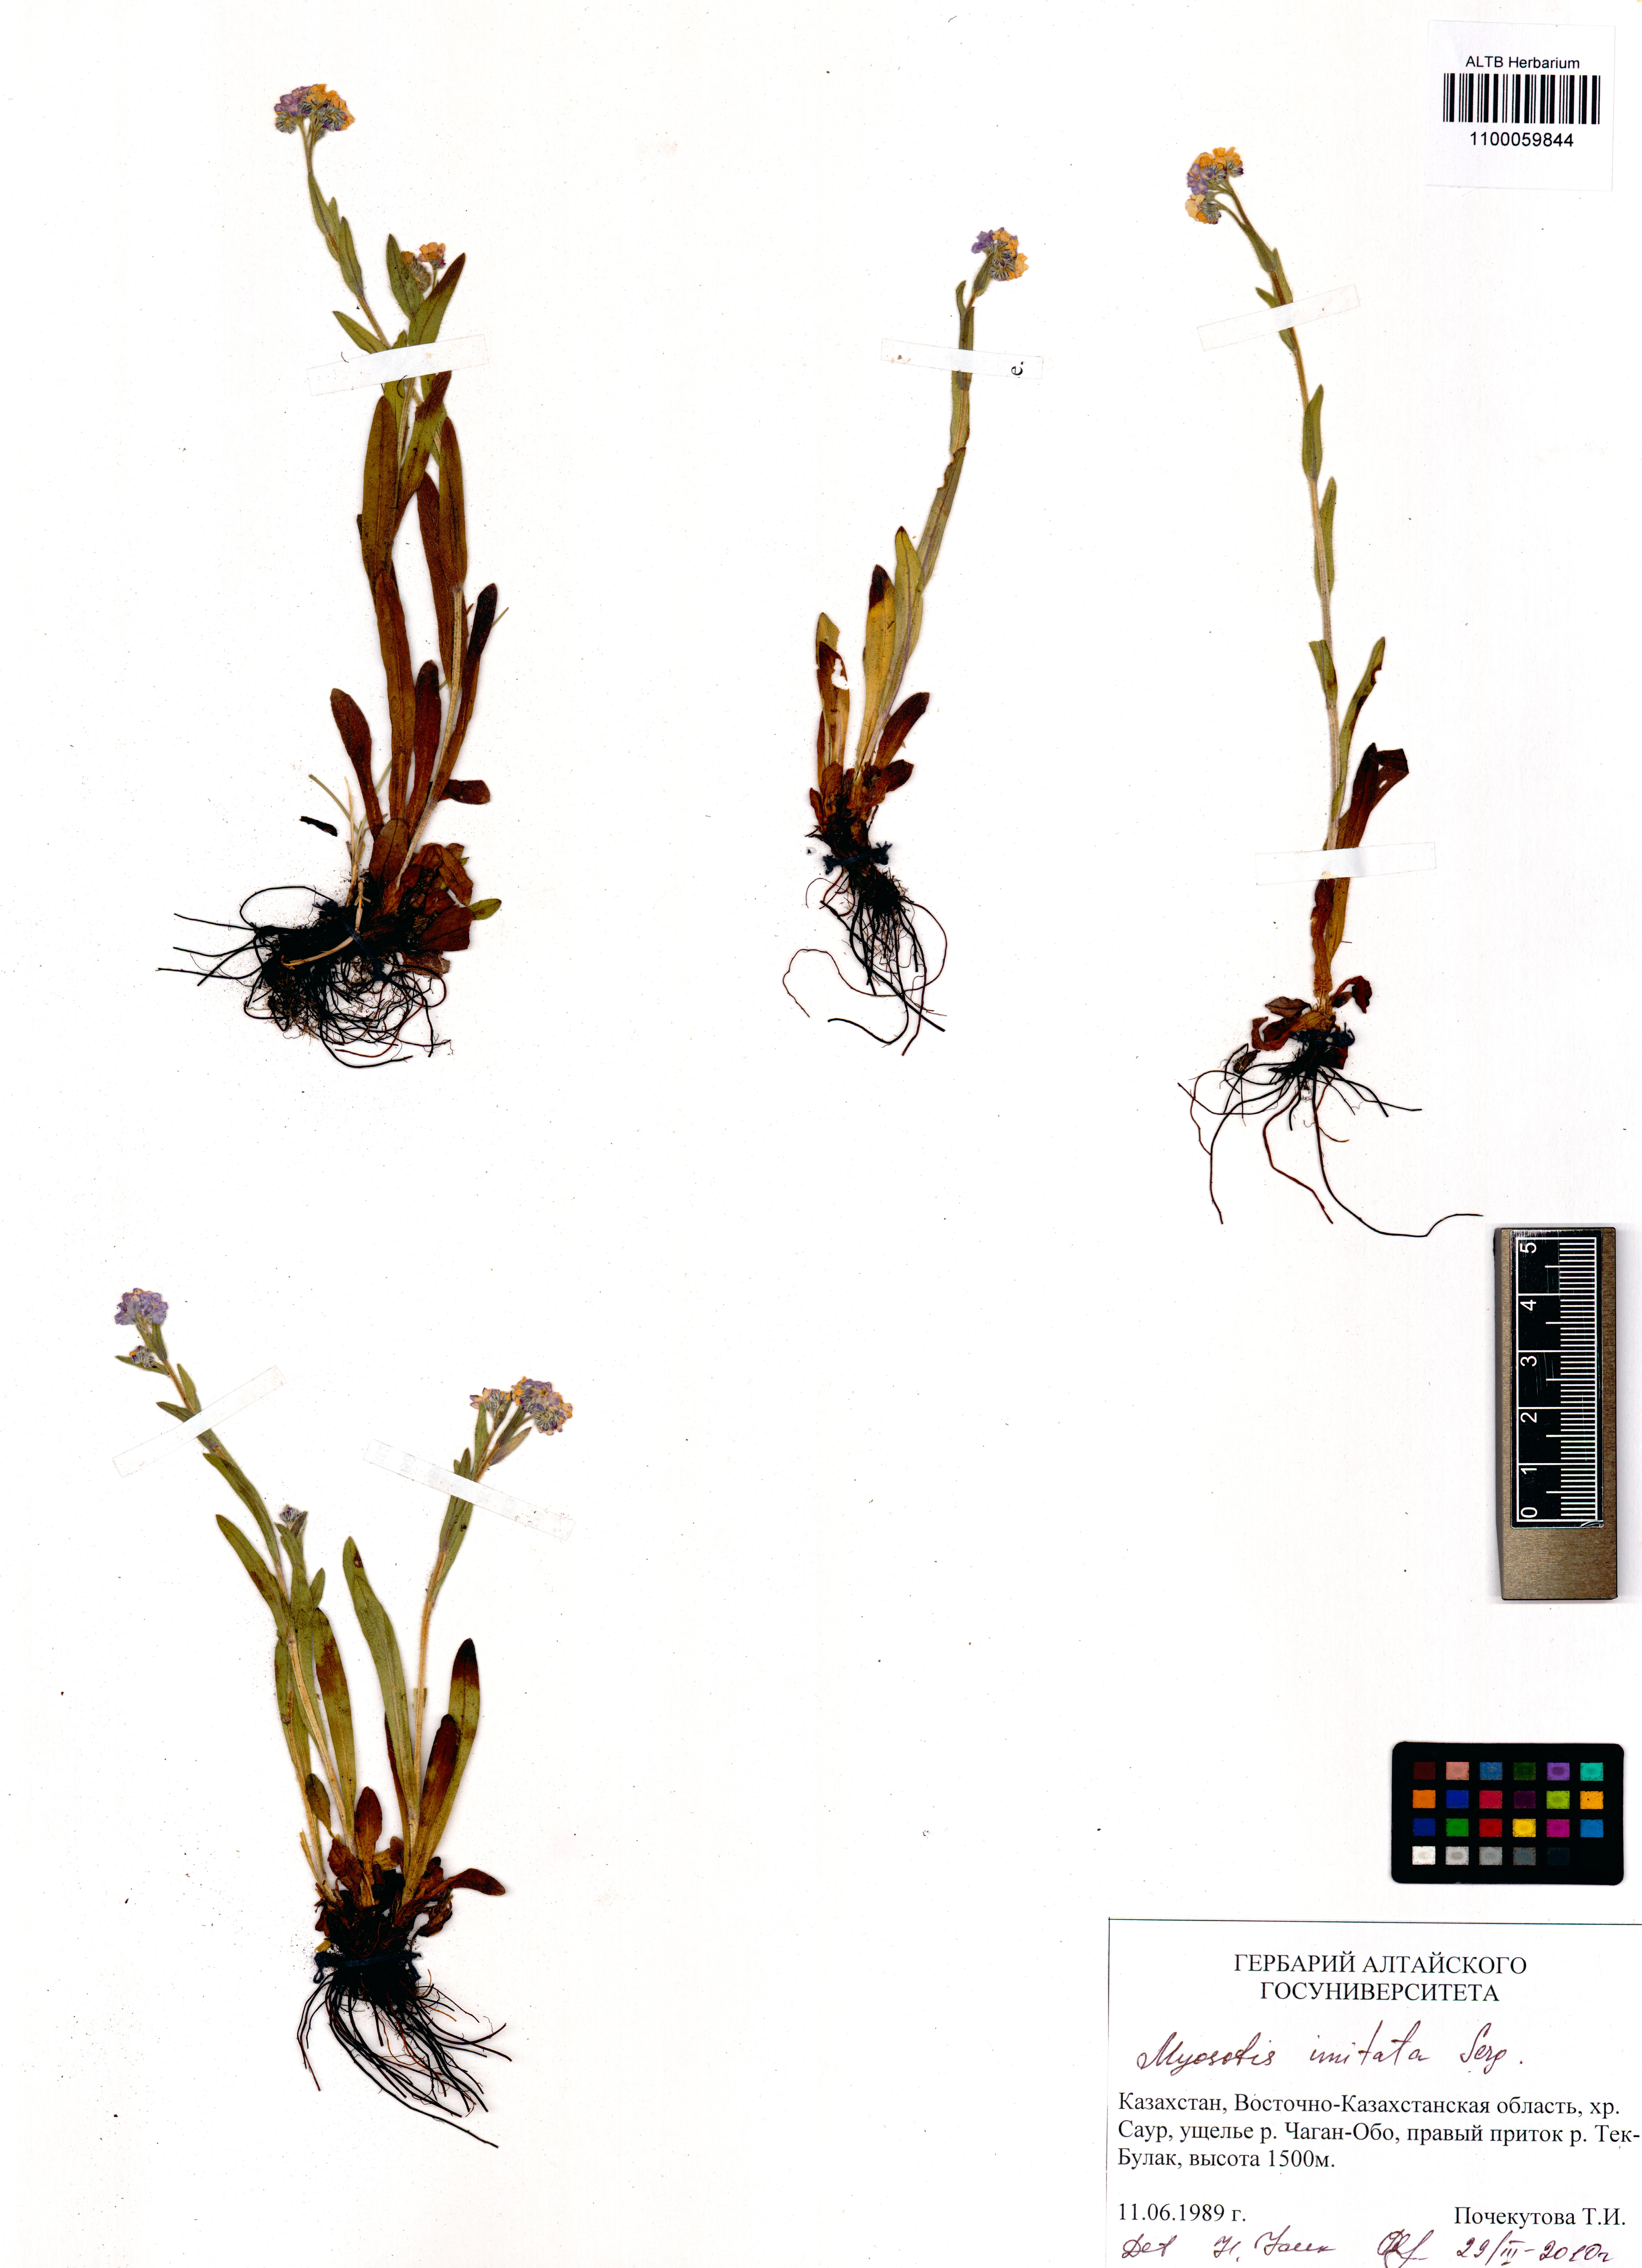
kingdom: Plantae
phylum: Tracheophyta
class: Magnoliopsida
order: Boraginales
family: Boraginaceae
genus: Myosotis
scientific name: Myosotis imitata
